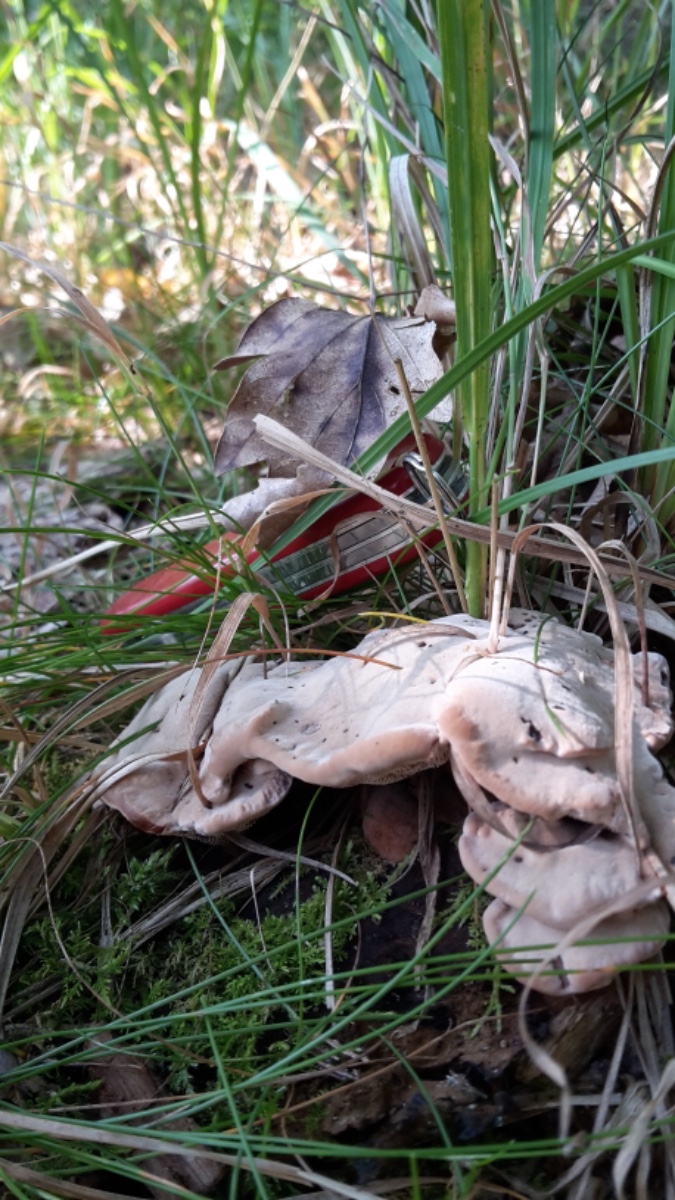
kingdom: Fungi
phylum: Basidiomycota
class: Agaricomycetes
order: Thelephorales
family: Bankeraceae
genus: Hydnellum
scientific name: Hydnellum spongiosipes
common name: filtet korkpigsvamp
